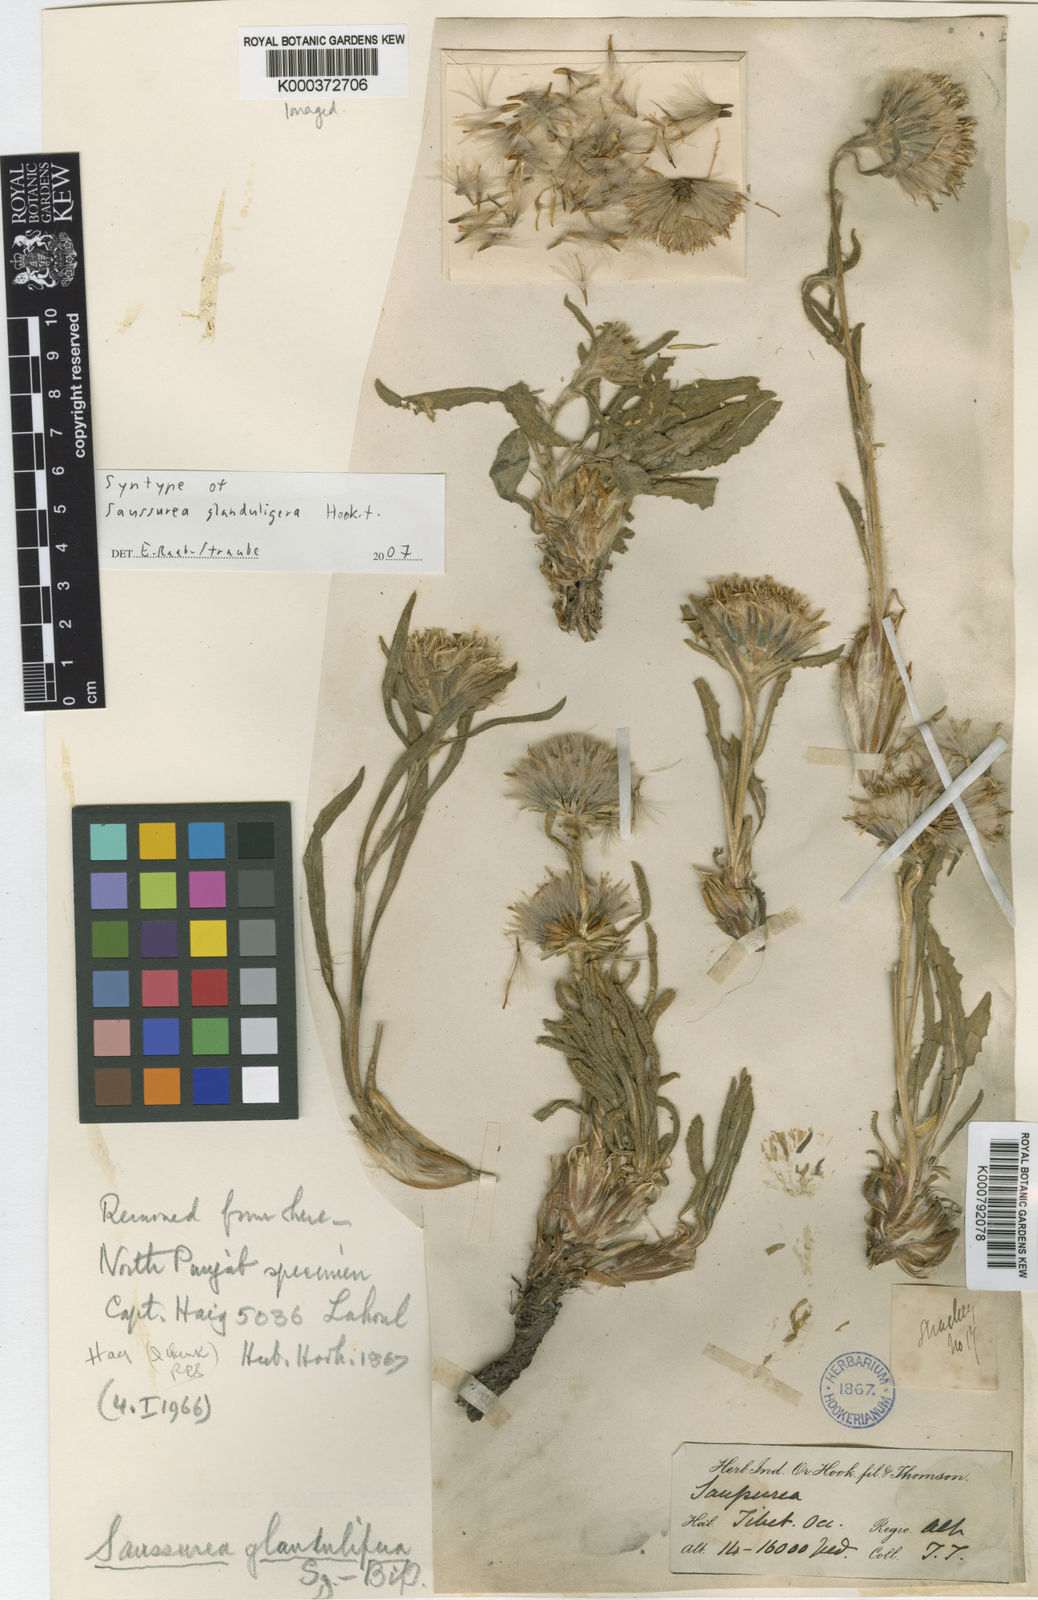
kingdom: Plantae
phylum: Tracheophyta
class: Magnoliopsida
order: Asterales
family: Asteraceae
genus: Saussurea
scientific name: Saussurea schlagintweitii
